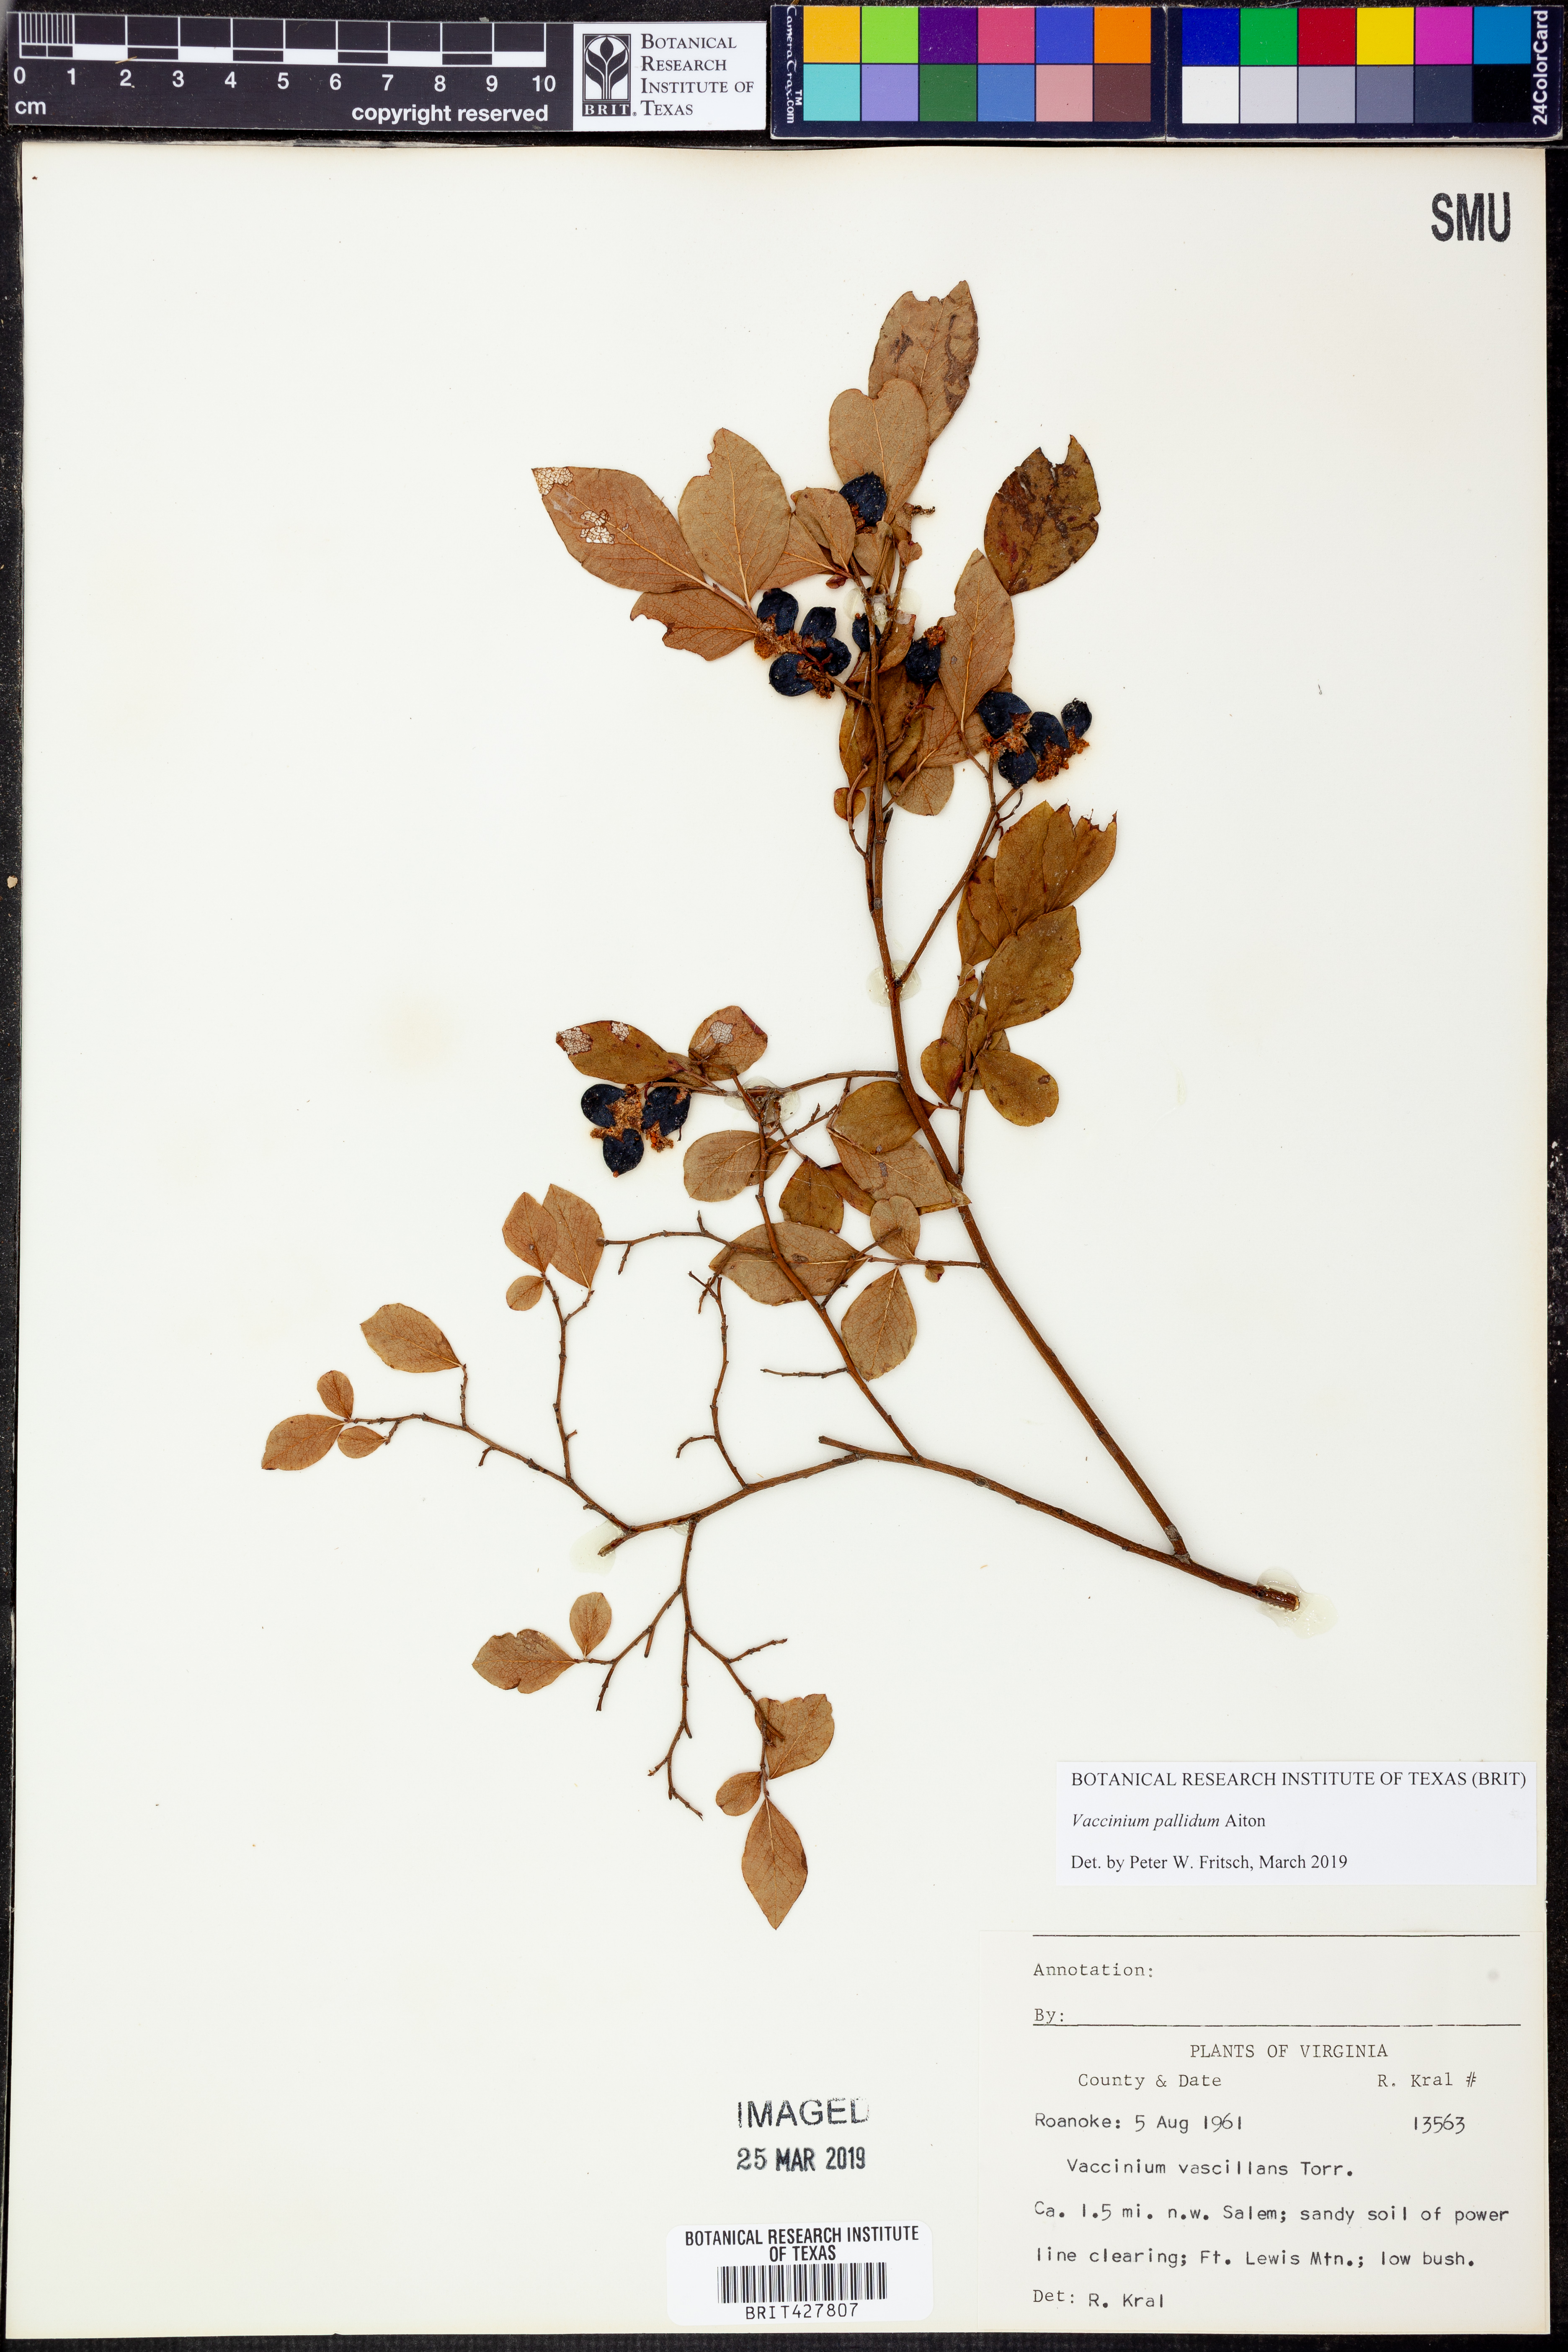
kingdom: Plantae
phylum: Tracheophyta
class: Magnoliopsida
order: Ericales
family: Ericaceae
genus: Vaccinium
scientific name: Vaccinium pallidum
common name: Blue ridge blueberry
